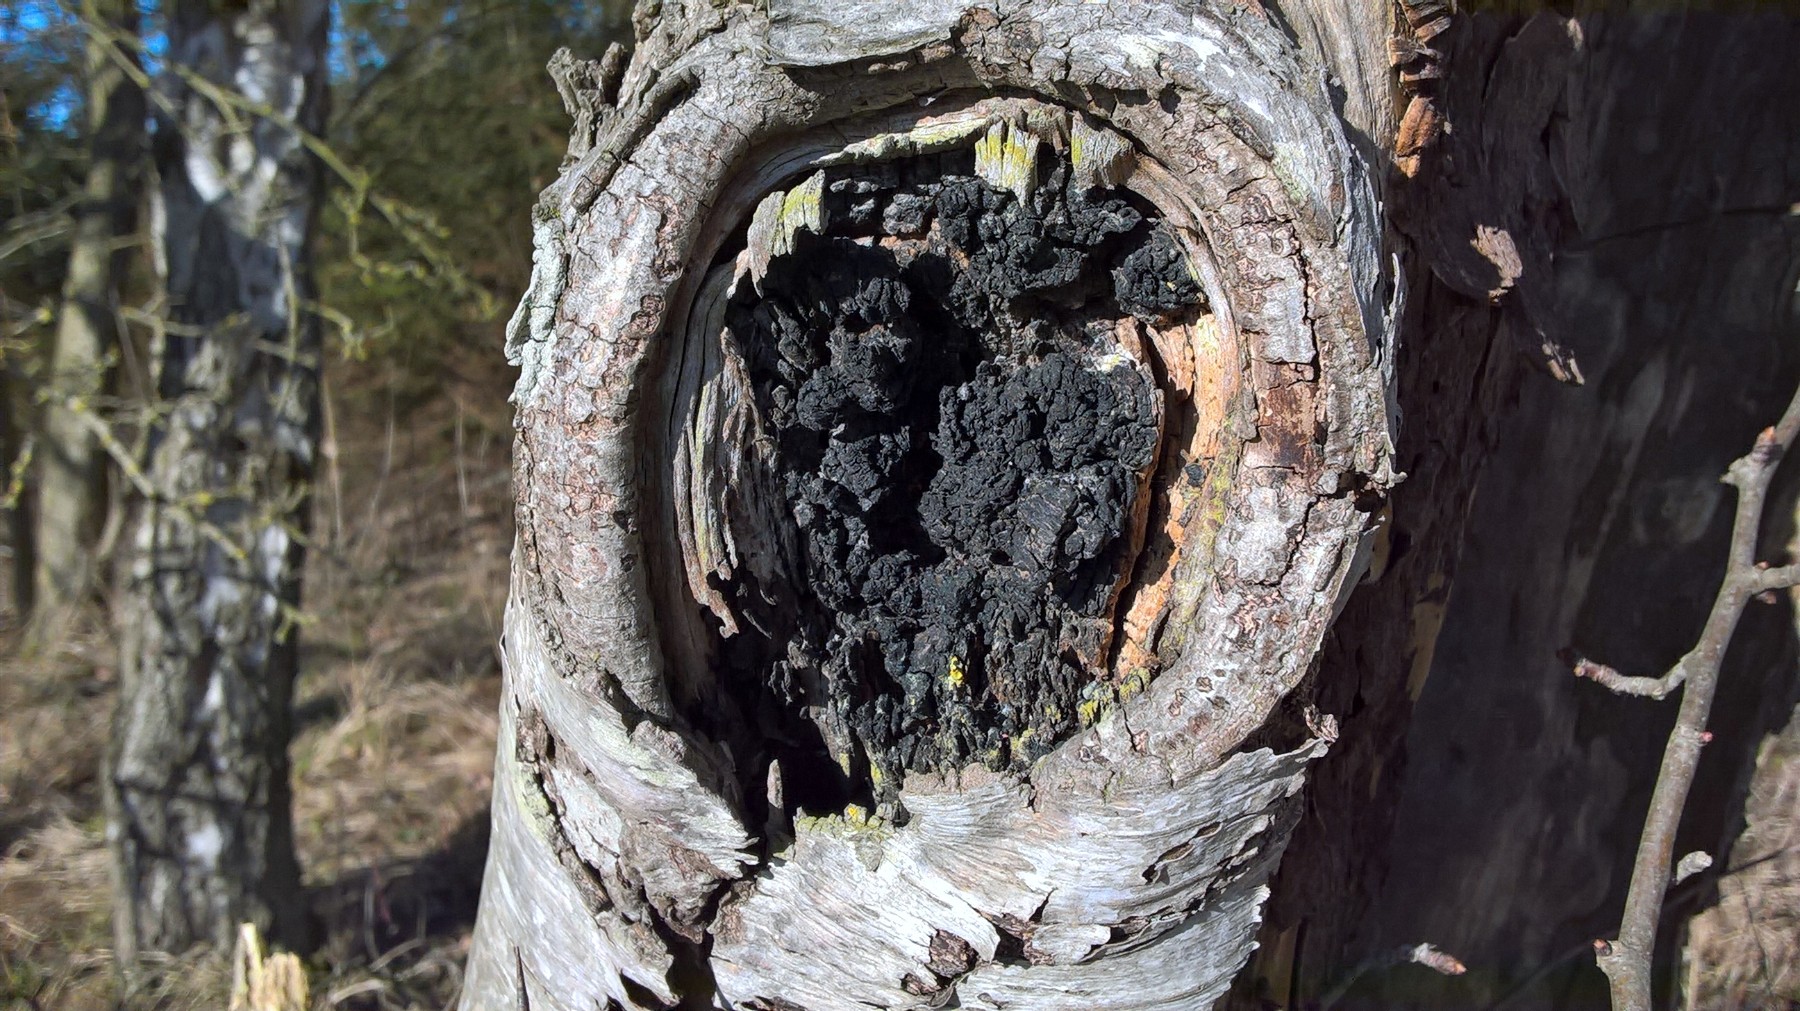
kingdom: Fungi
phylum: Basidiomycota
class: Agaricomycetes
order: Hymenochaetales
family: Hymenochaetaceae
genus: Inonotus
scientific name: Inonotus obliquus
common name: birke-spejlporesvamp
